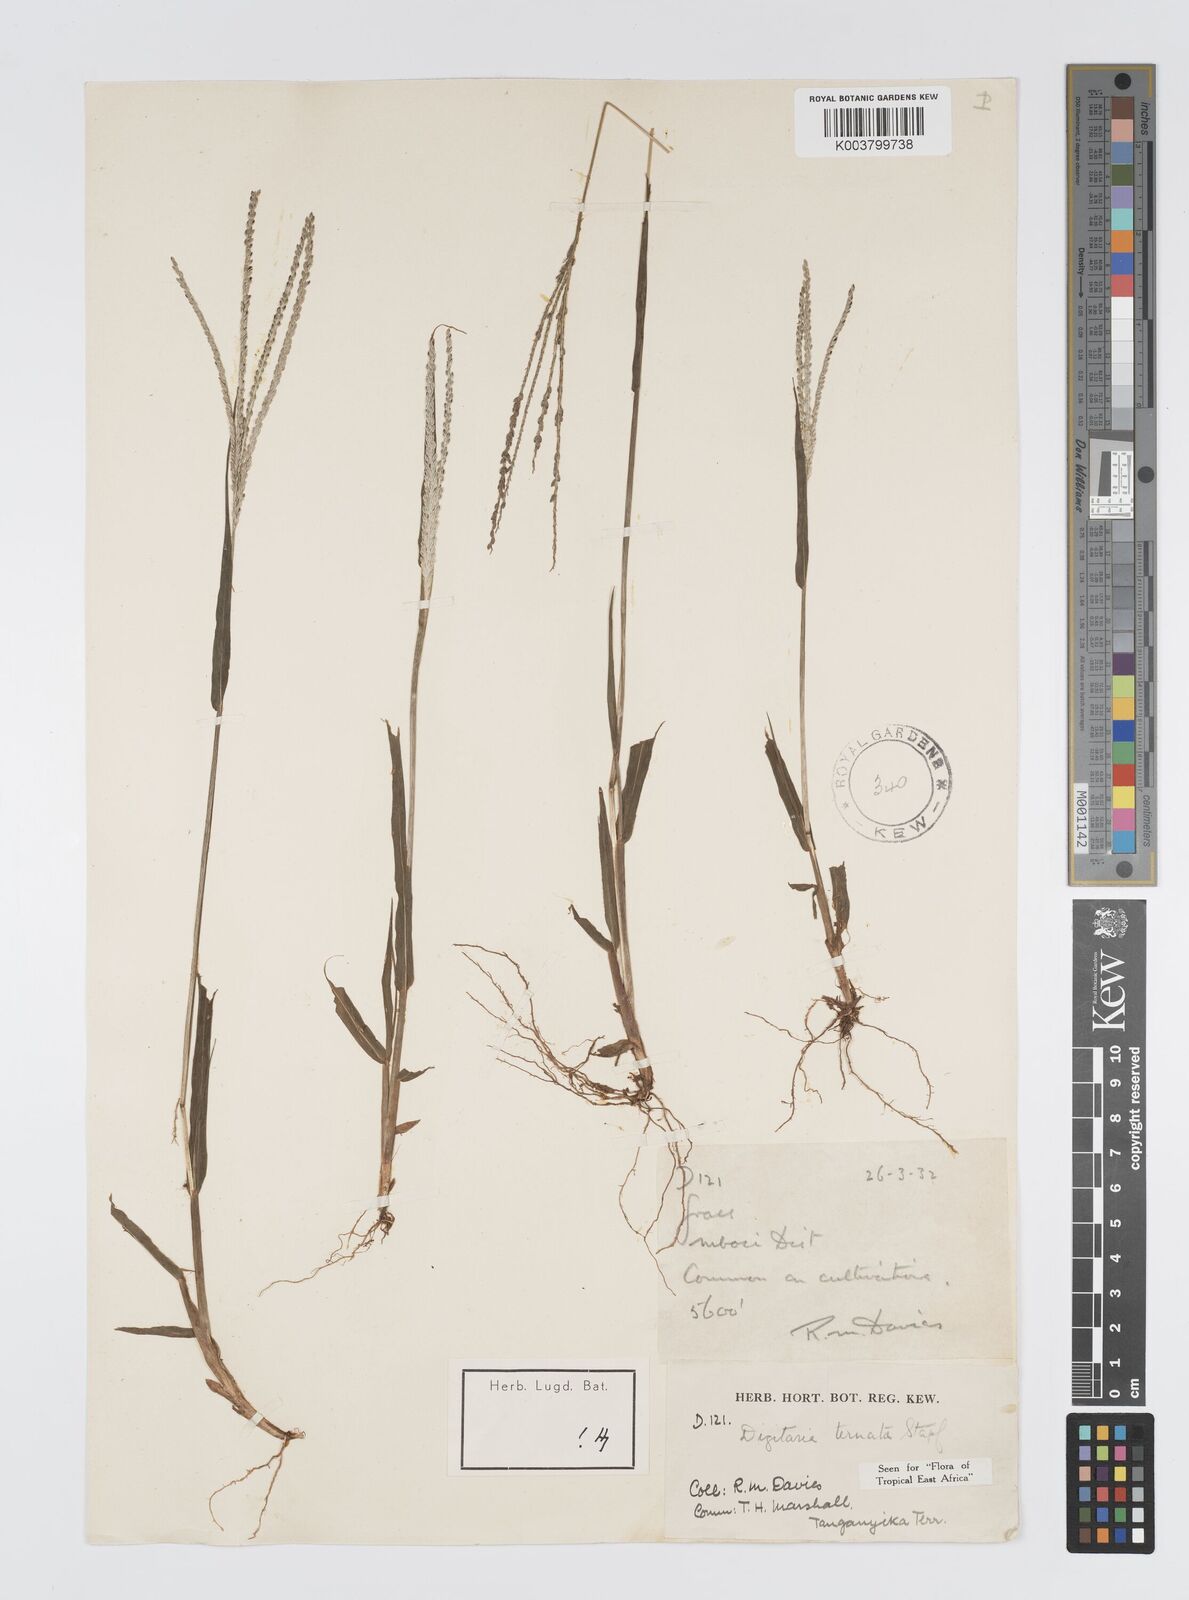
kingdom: Plantae
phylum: Tracheophyta
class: Liliopsida
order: Poales
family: Poaceae
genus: Digitaria
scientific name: Digitaria ternata
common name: Blackseed crabgrass
